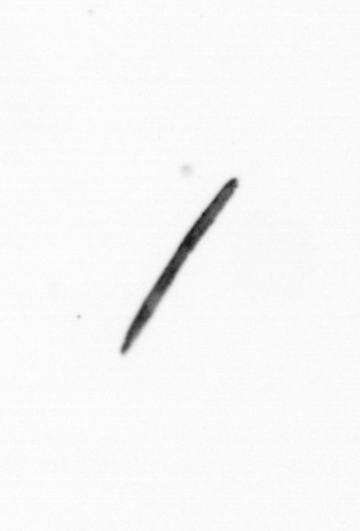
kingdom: Bacteria
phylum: Cyanobacteria
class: Cyanobacteriia
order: Cyanobacteriales
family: Microcoleaceae
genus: Trichodesmium
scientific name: Trichodesmium
